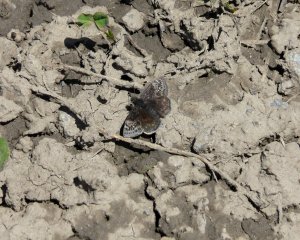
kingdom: Animalia
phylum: Arthropoda
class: Insecta
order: Lepidoptera
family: Hesperiidae
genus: Gesta
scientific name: Gesta
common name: Columbine Duskywing
